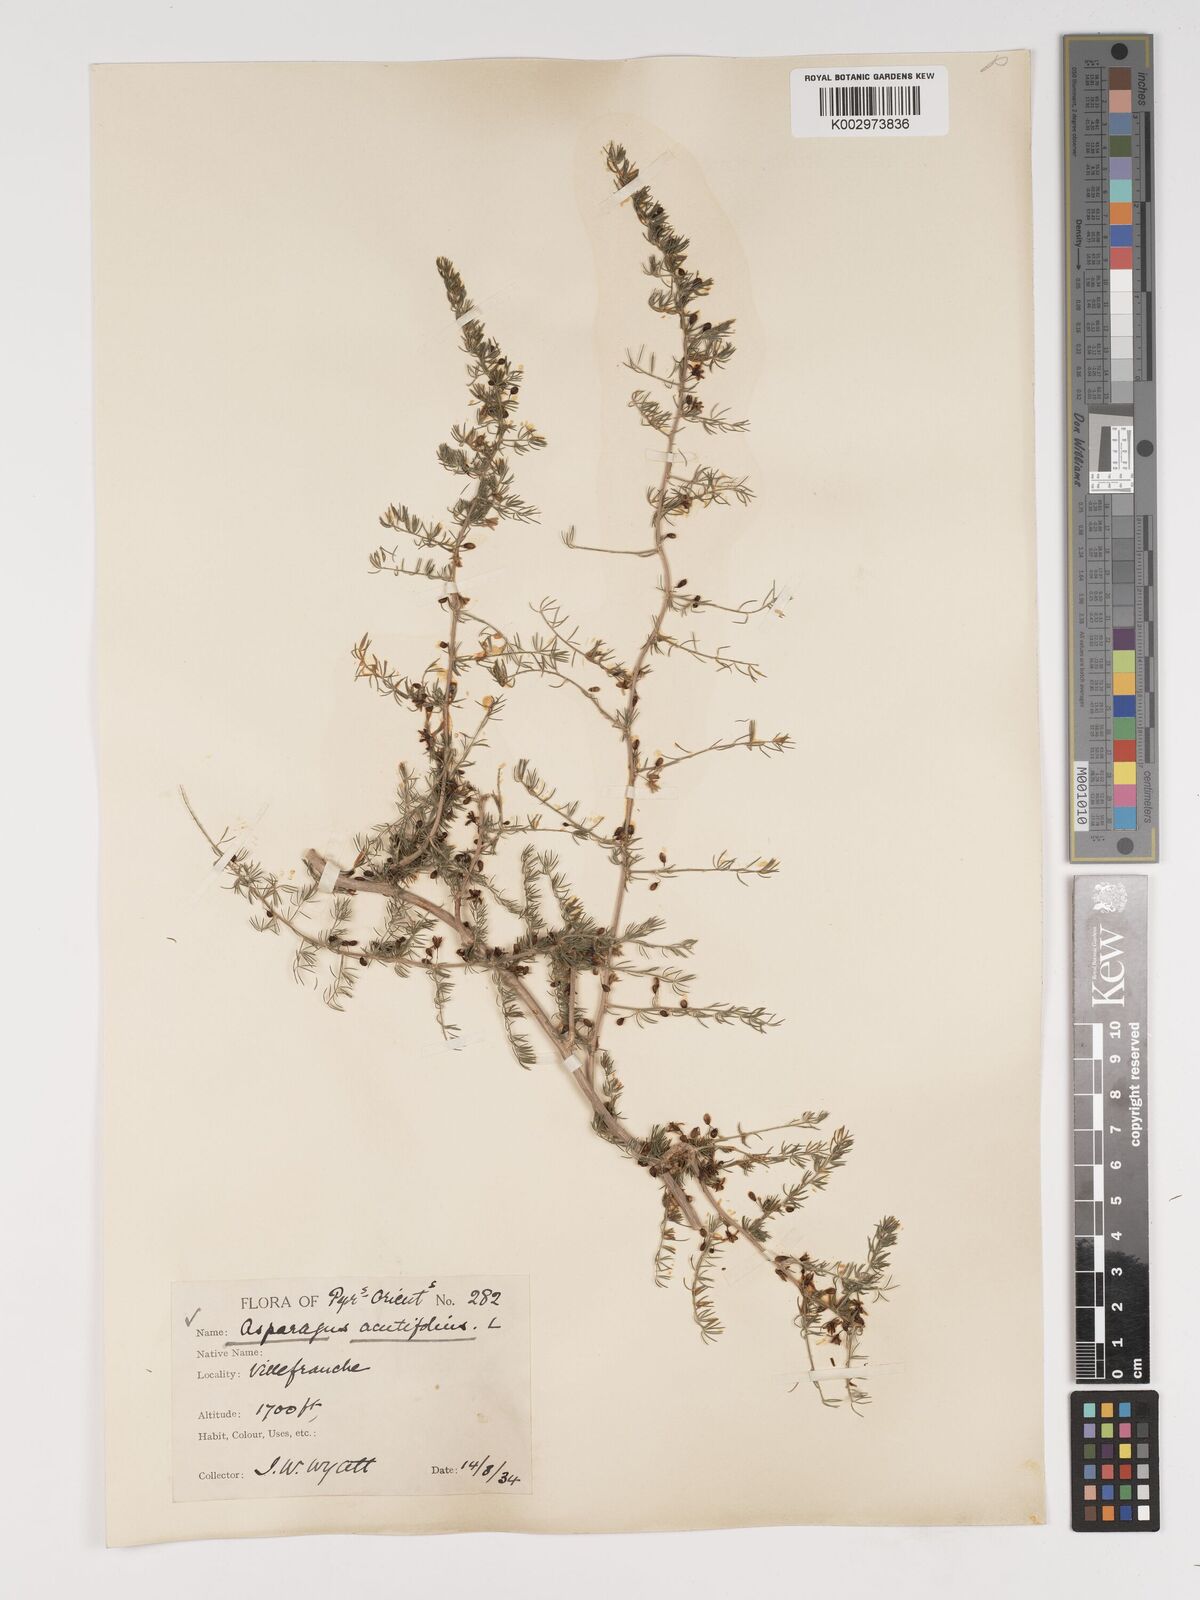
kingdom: Plantae
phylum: Tracheophyta
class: Liliopsida
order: Asparagales
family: Asparagaceae
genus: Asparagus
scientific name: Asparagus aethiopicus
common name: Sprenger's asparagus fern
